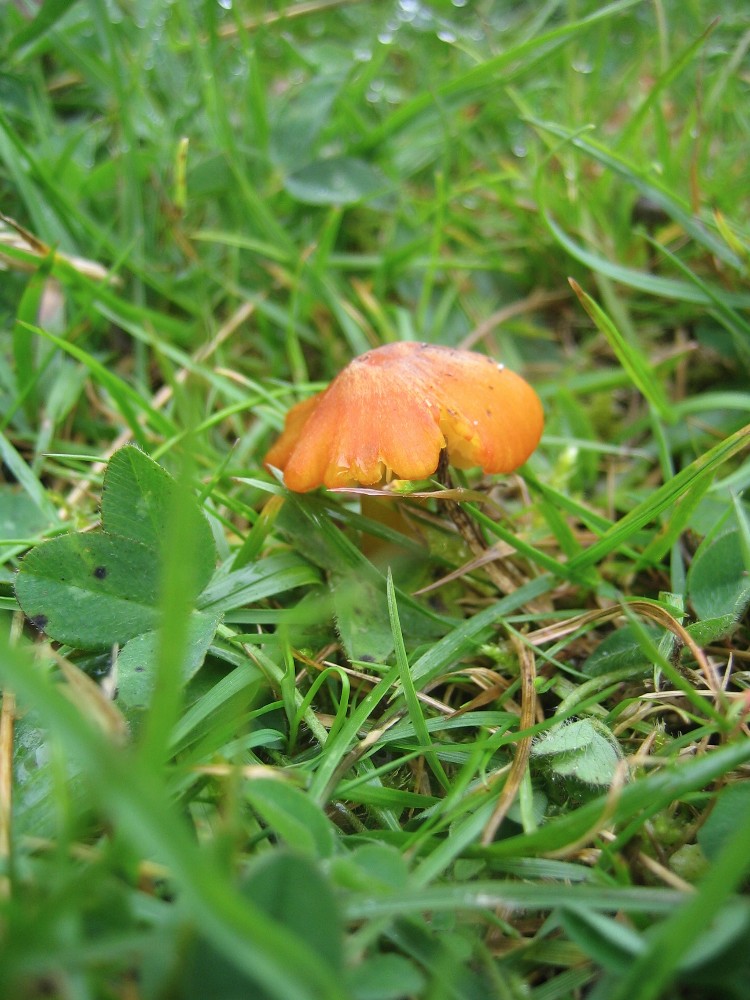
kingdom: Fungi
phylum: Basidiomycota
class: Agaricomycetes
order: Agaricales
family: Hygrophoraceae
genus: Hygrocybe
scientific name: Hygrocybe conica
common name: kegle-vokshat
